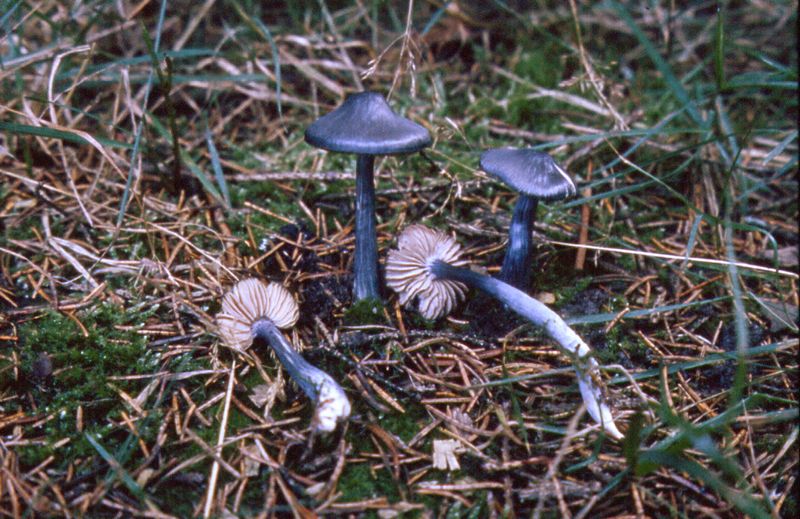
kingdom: Fungi
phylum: Basidiomycota
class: Agaricomycetes
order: Agaricales
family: Entolomataceae
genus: Entocybe
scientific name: Entocybe nitida
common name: stålblå rødblad
